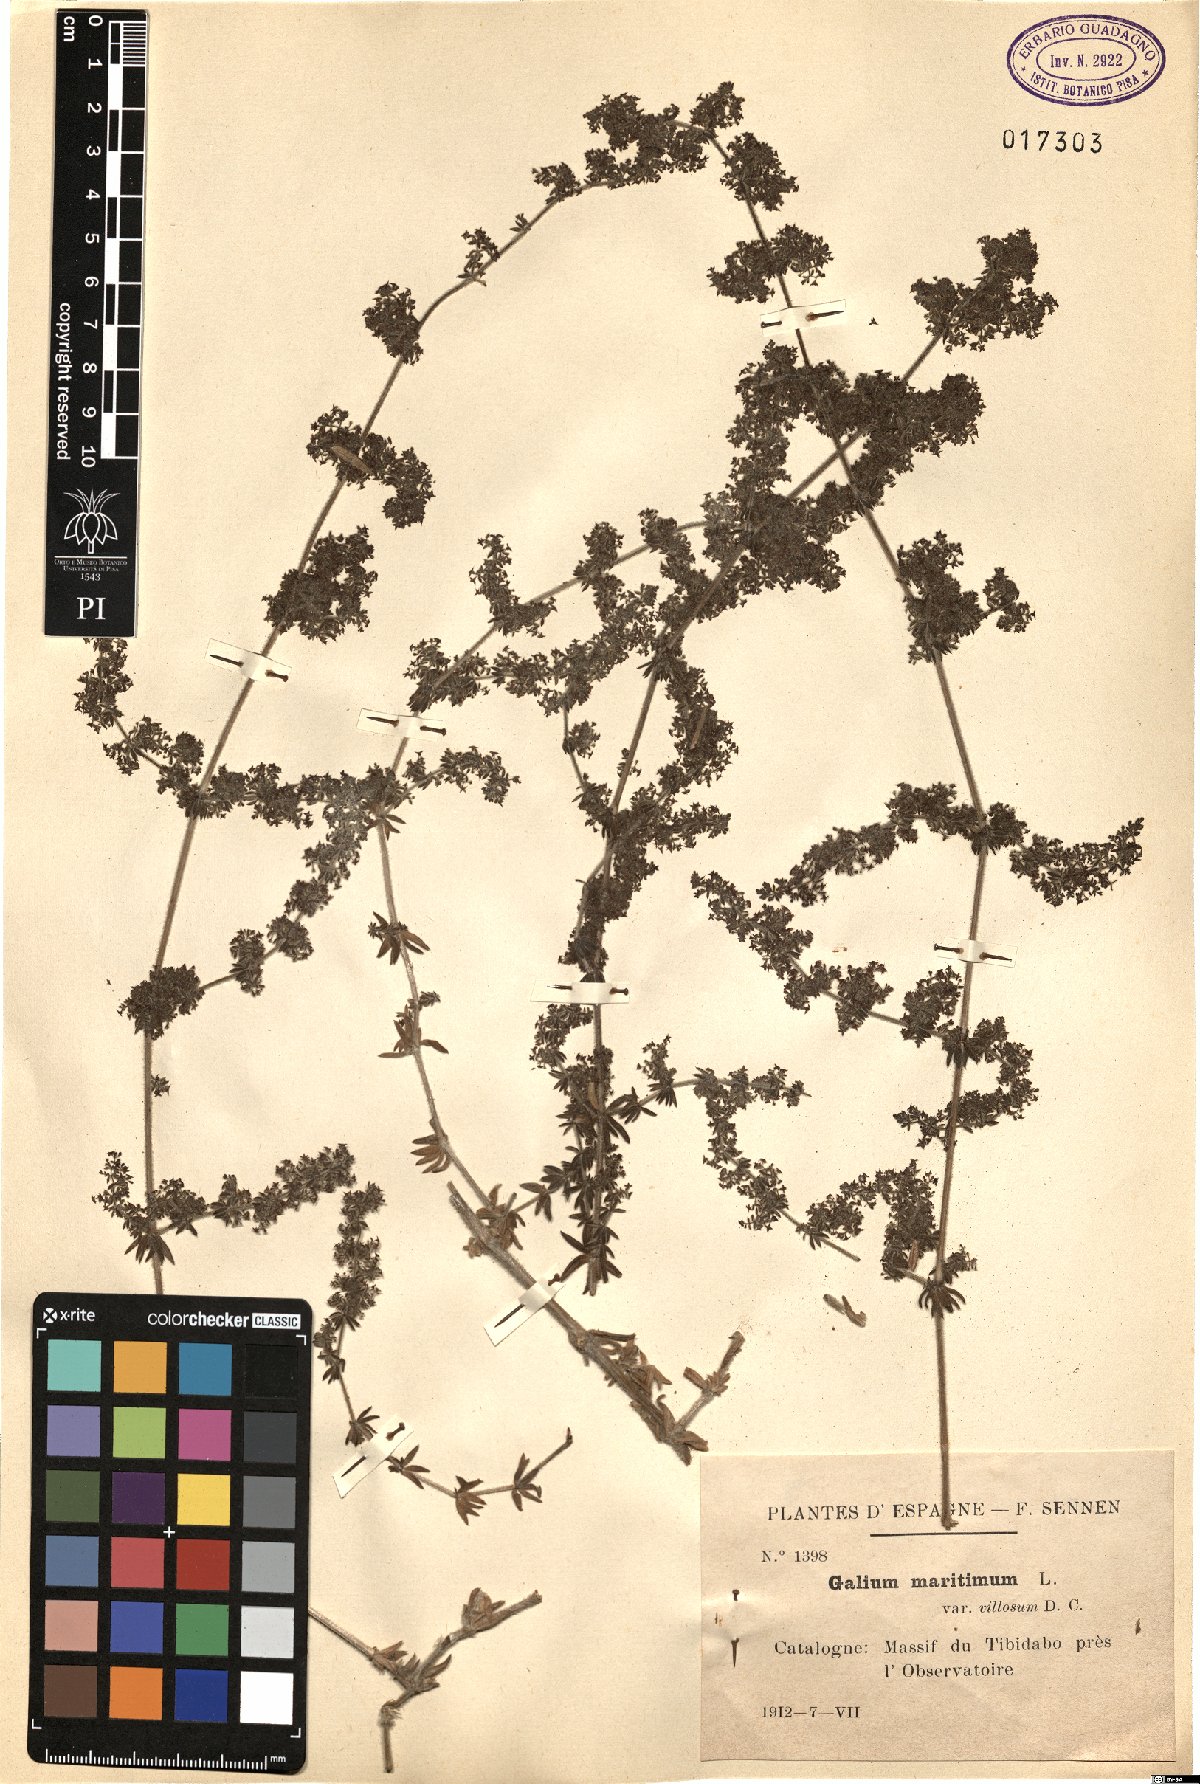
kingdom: Plantae
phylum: Tracheophyta
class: Magnoliopsida
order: Gentianales
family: Rubiaceae
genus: Galium
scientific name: Galium maritimum
